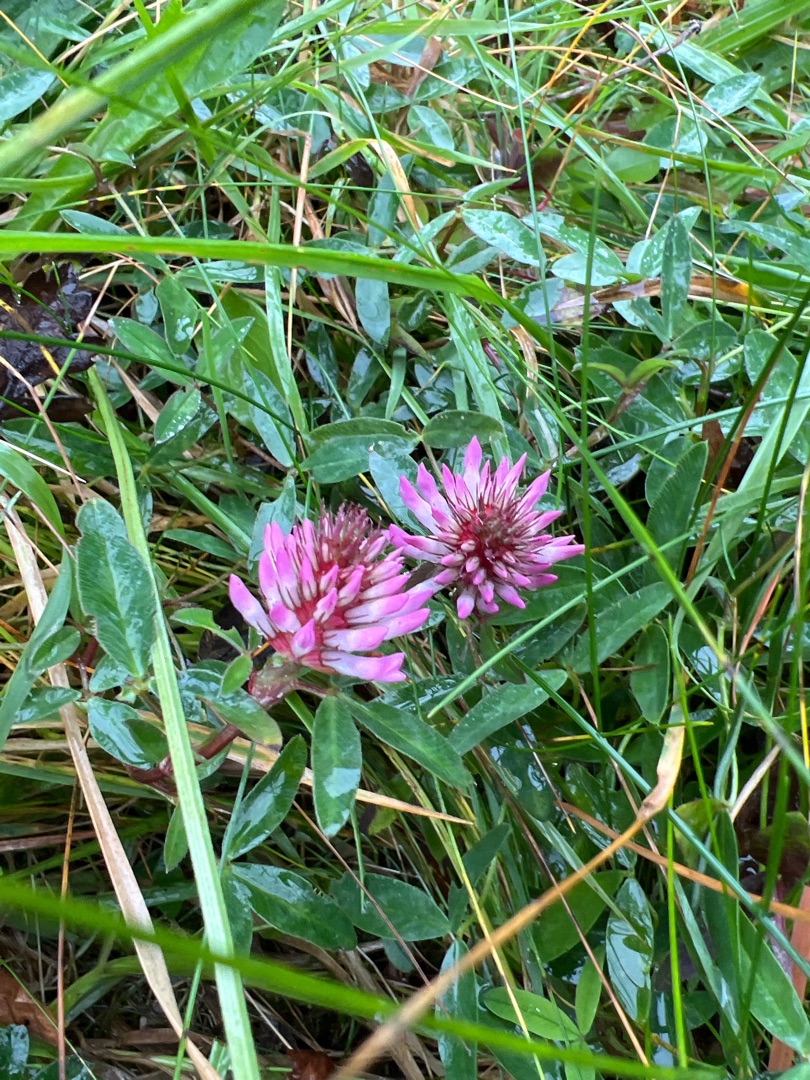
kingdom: Plantae
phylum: Tracheophyta
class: Magnoliopsida
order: Fabales
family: Fabaceae
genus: Trifolium
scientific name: Trifolium medium
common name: Bugtet kløver
